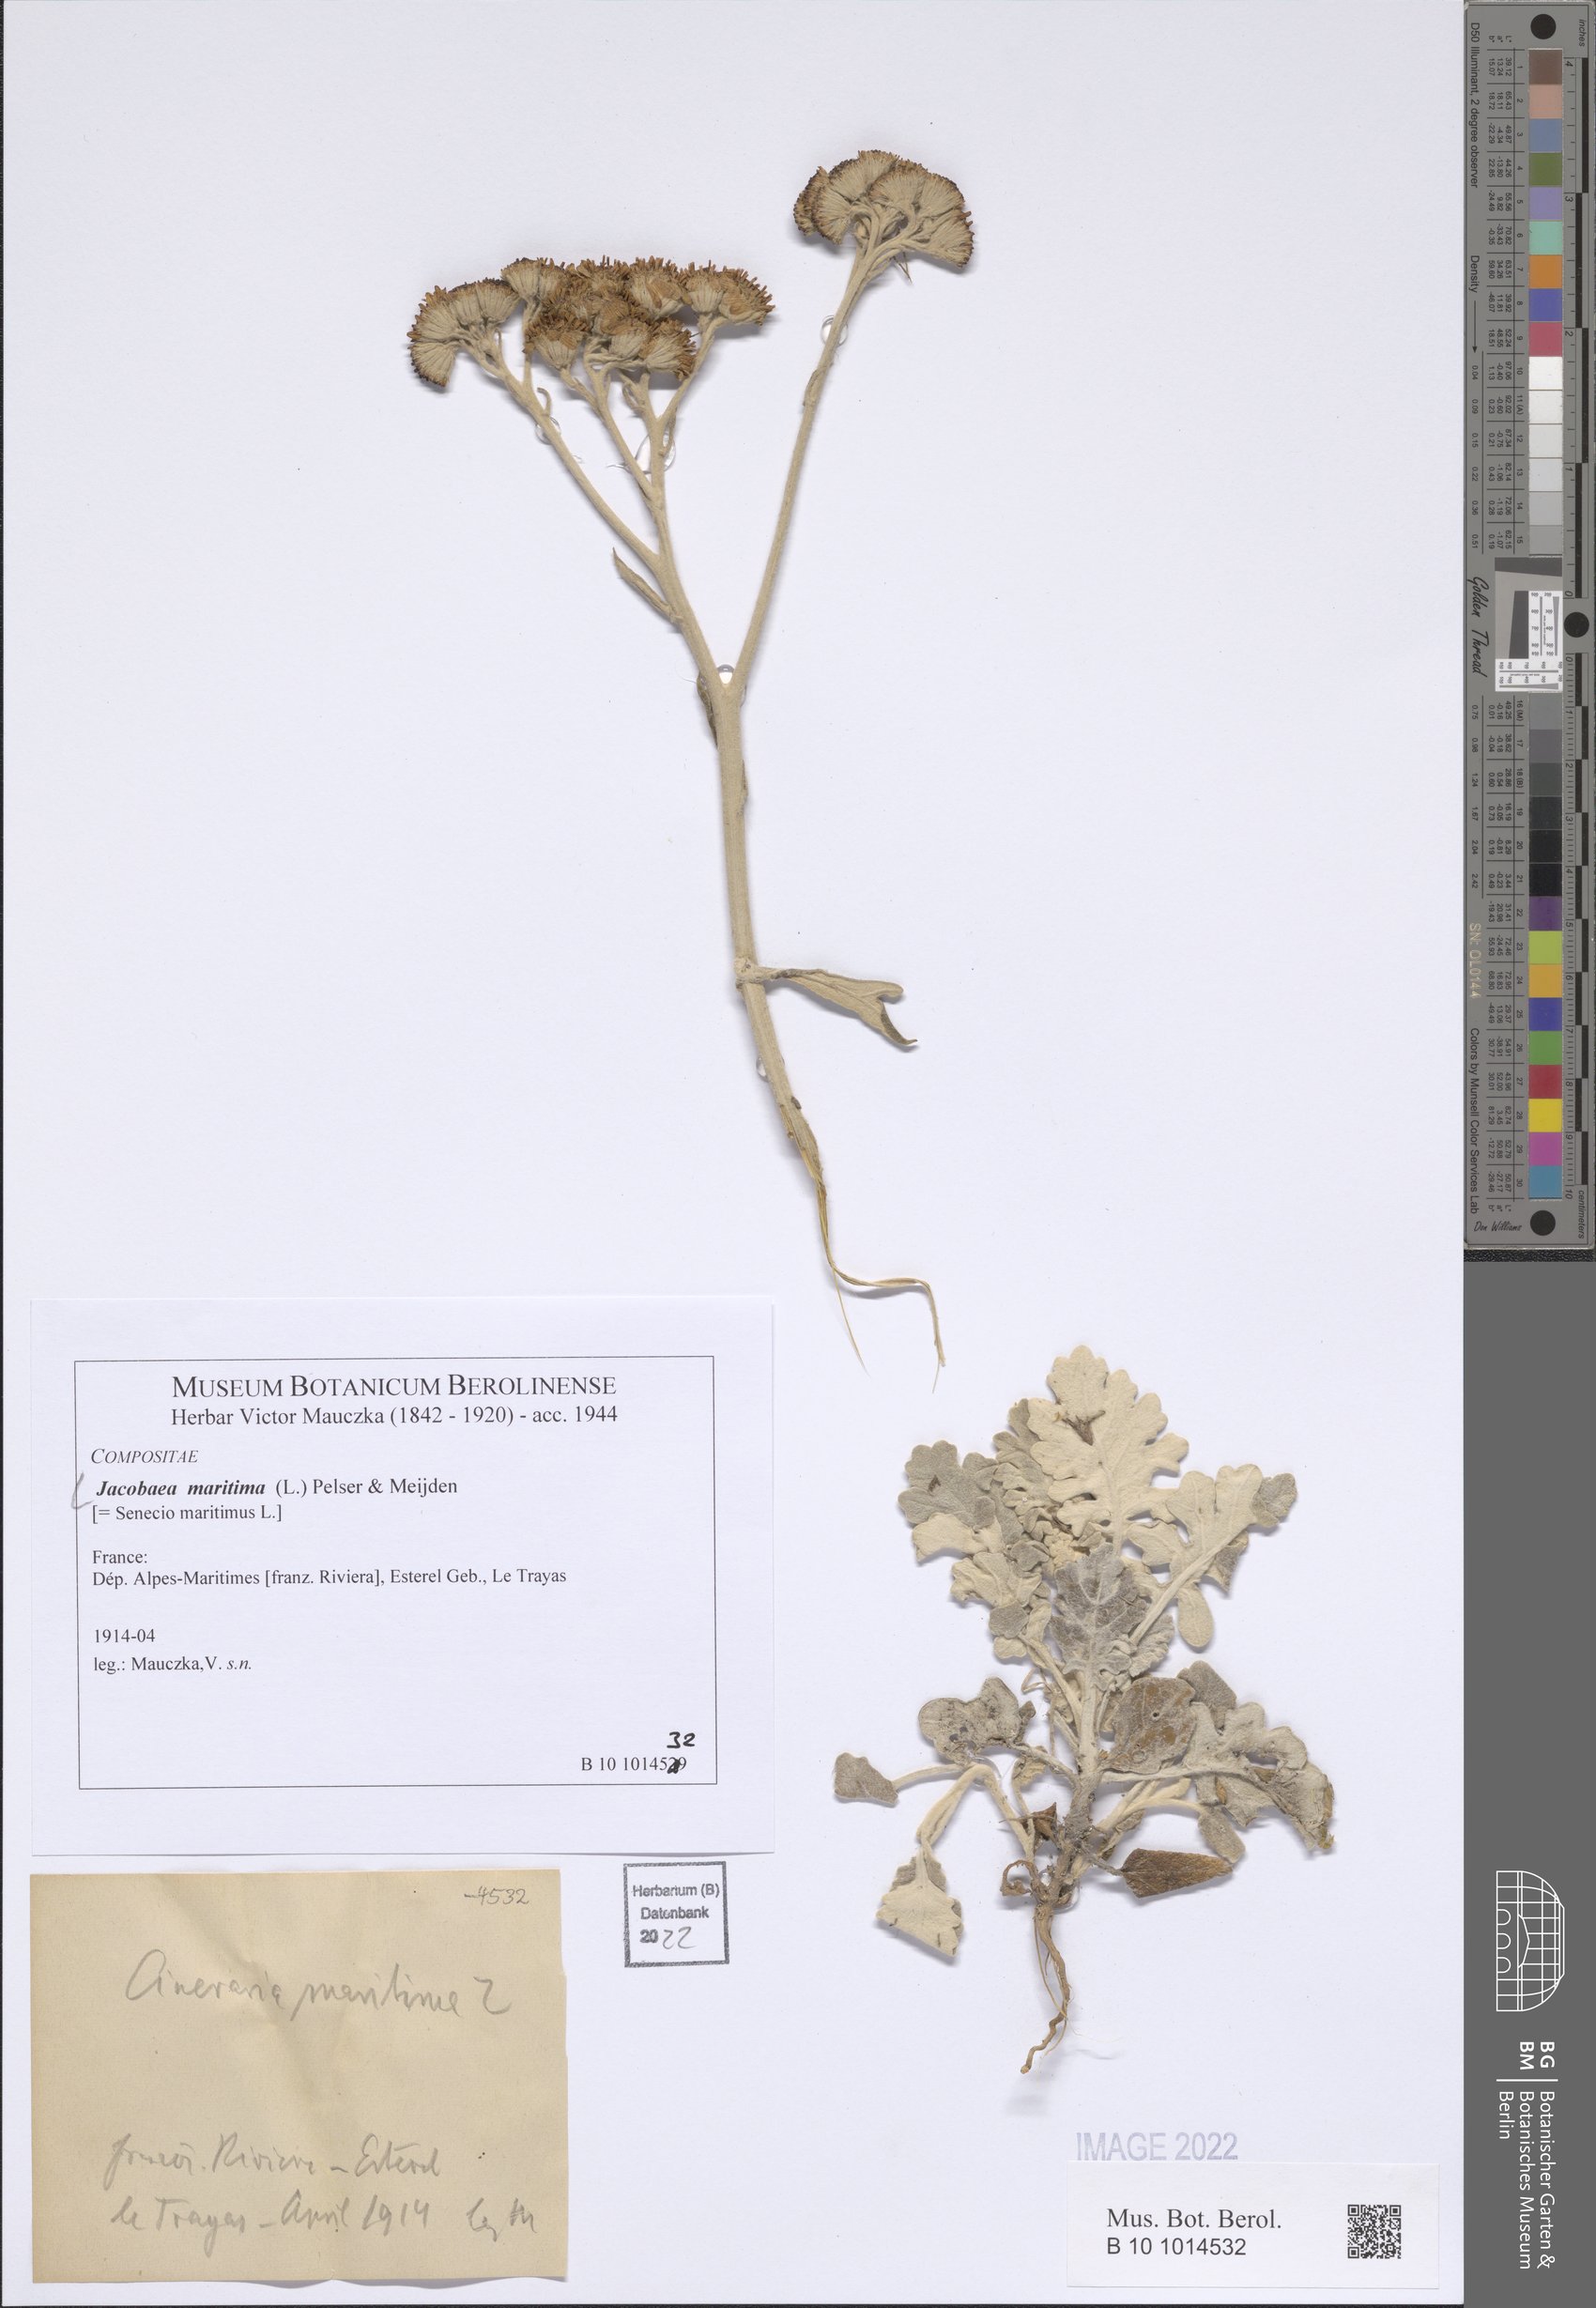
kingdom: Plantae
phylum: Tracheophyta
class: Magnoliopsida
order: Asterales
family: Asteraceae
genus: Jacobaea
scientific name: Jacobaea maritima
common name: Silver ragwort
